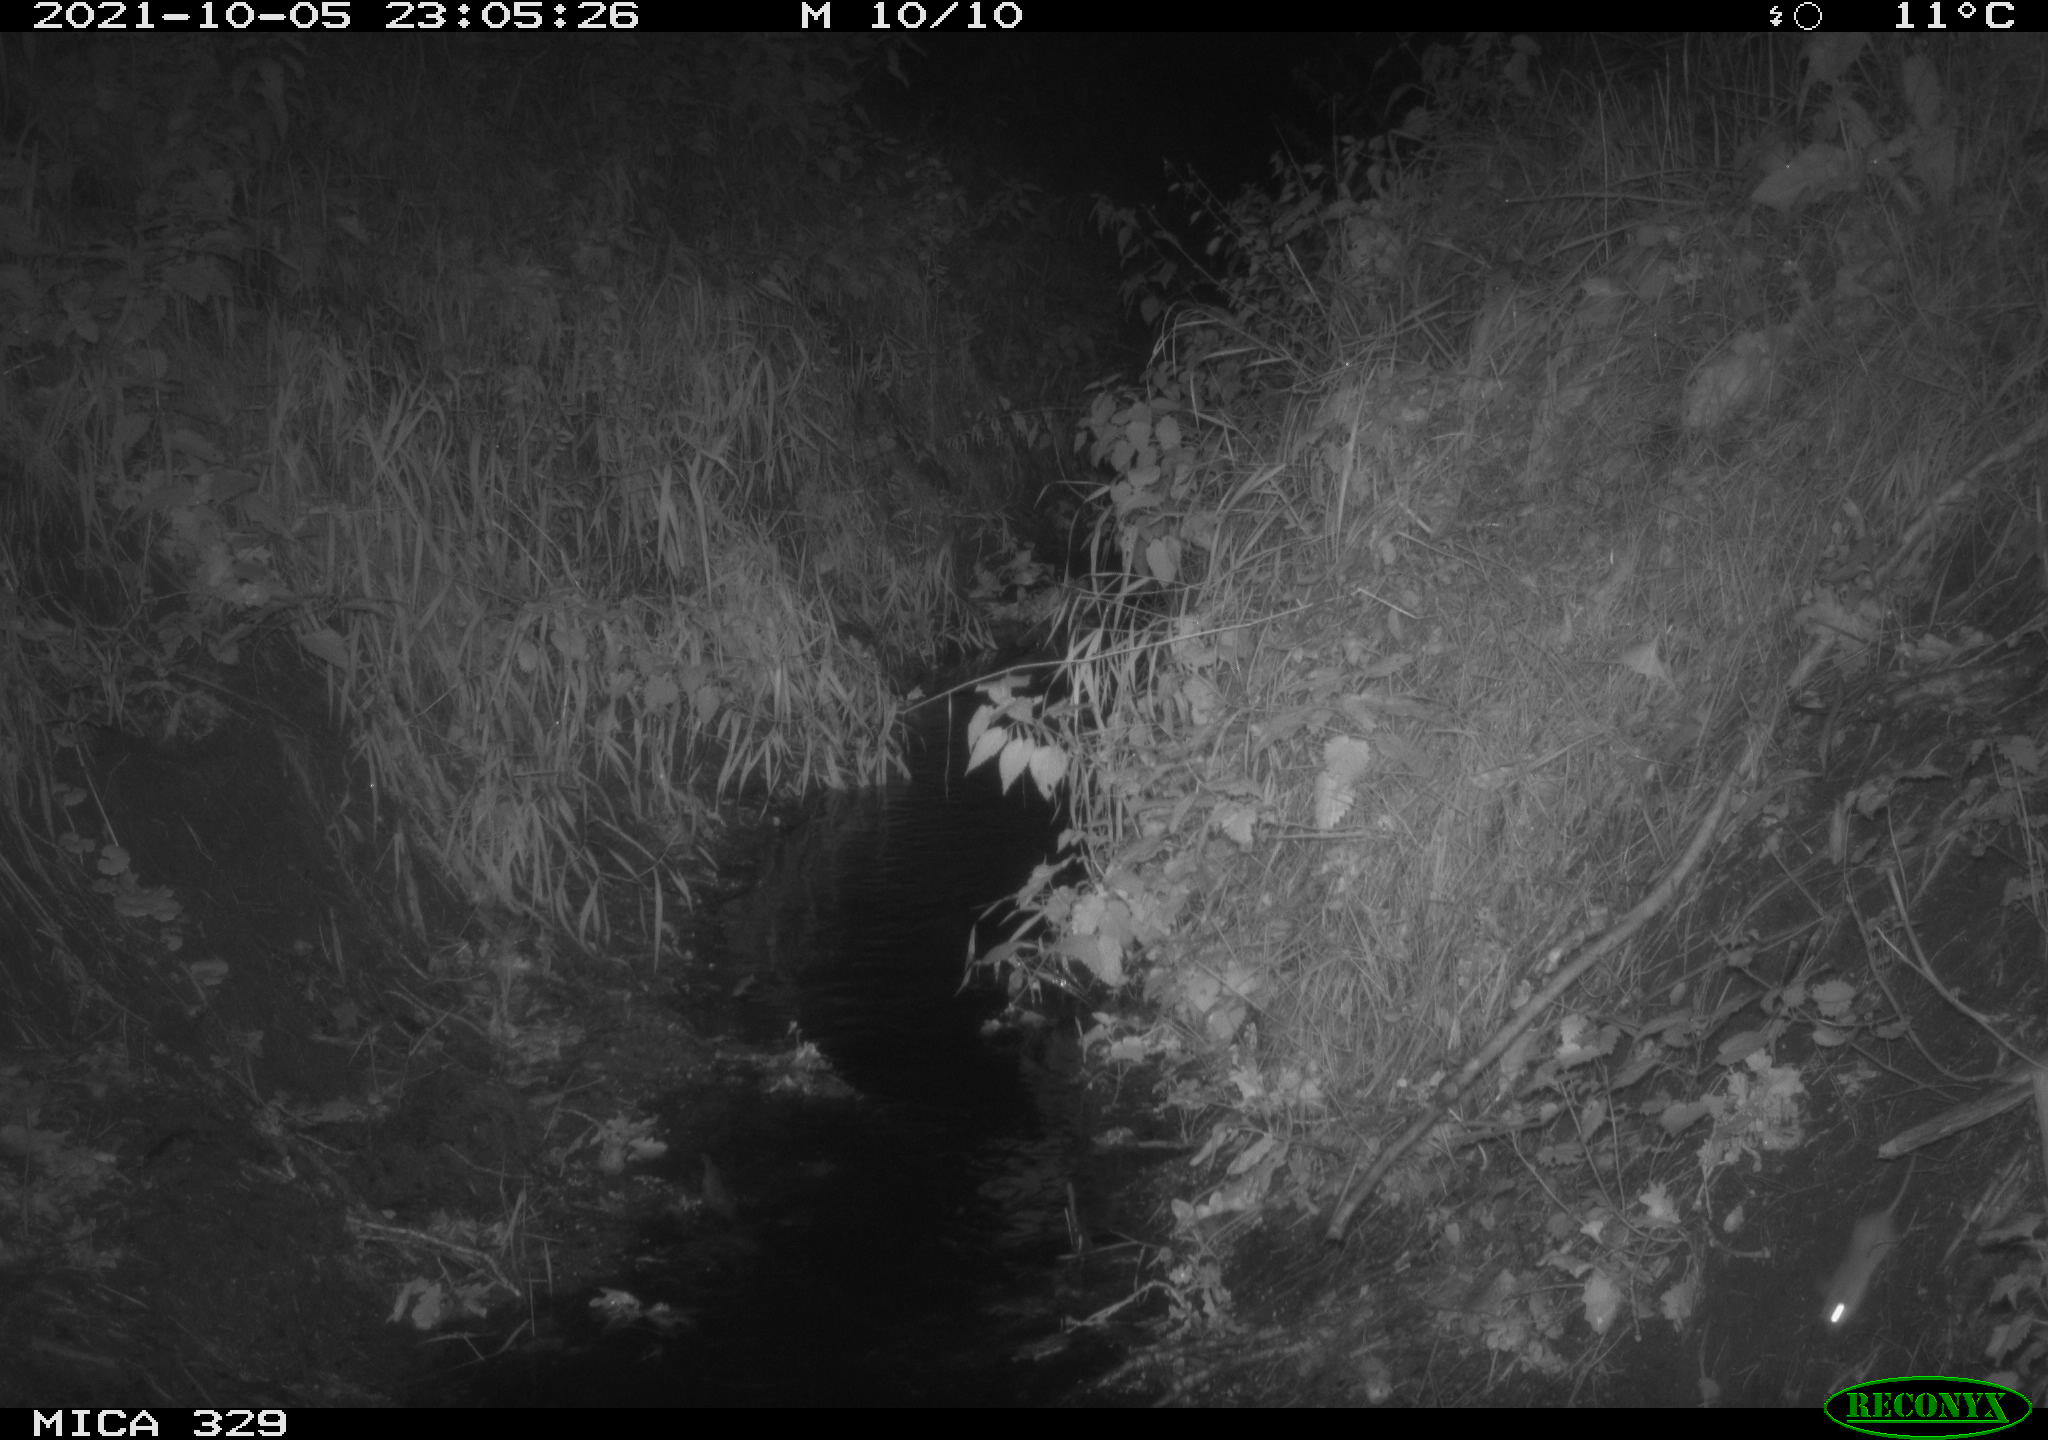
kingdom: Animalia
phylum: Chordata
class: Mammalia
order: Rodentia
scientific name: Rodentia
